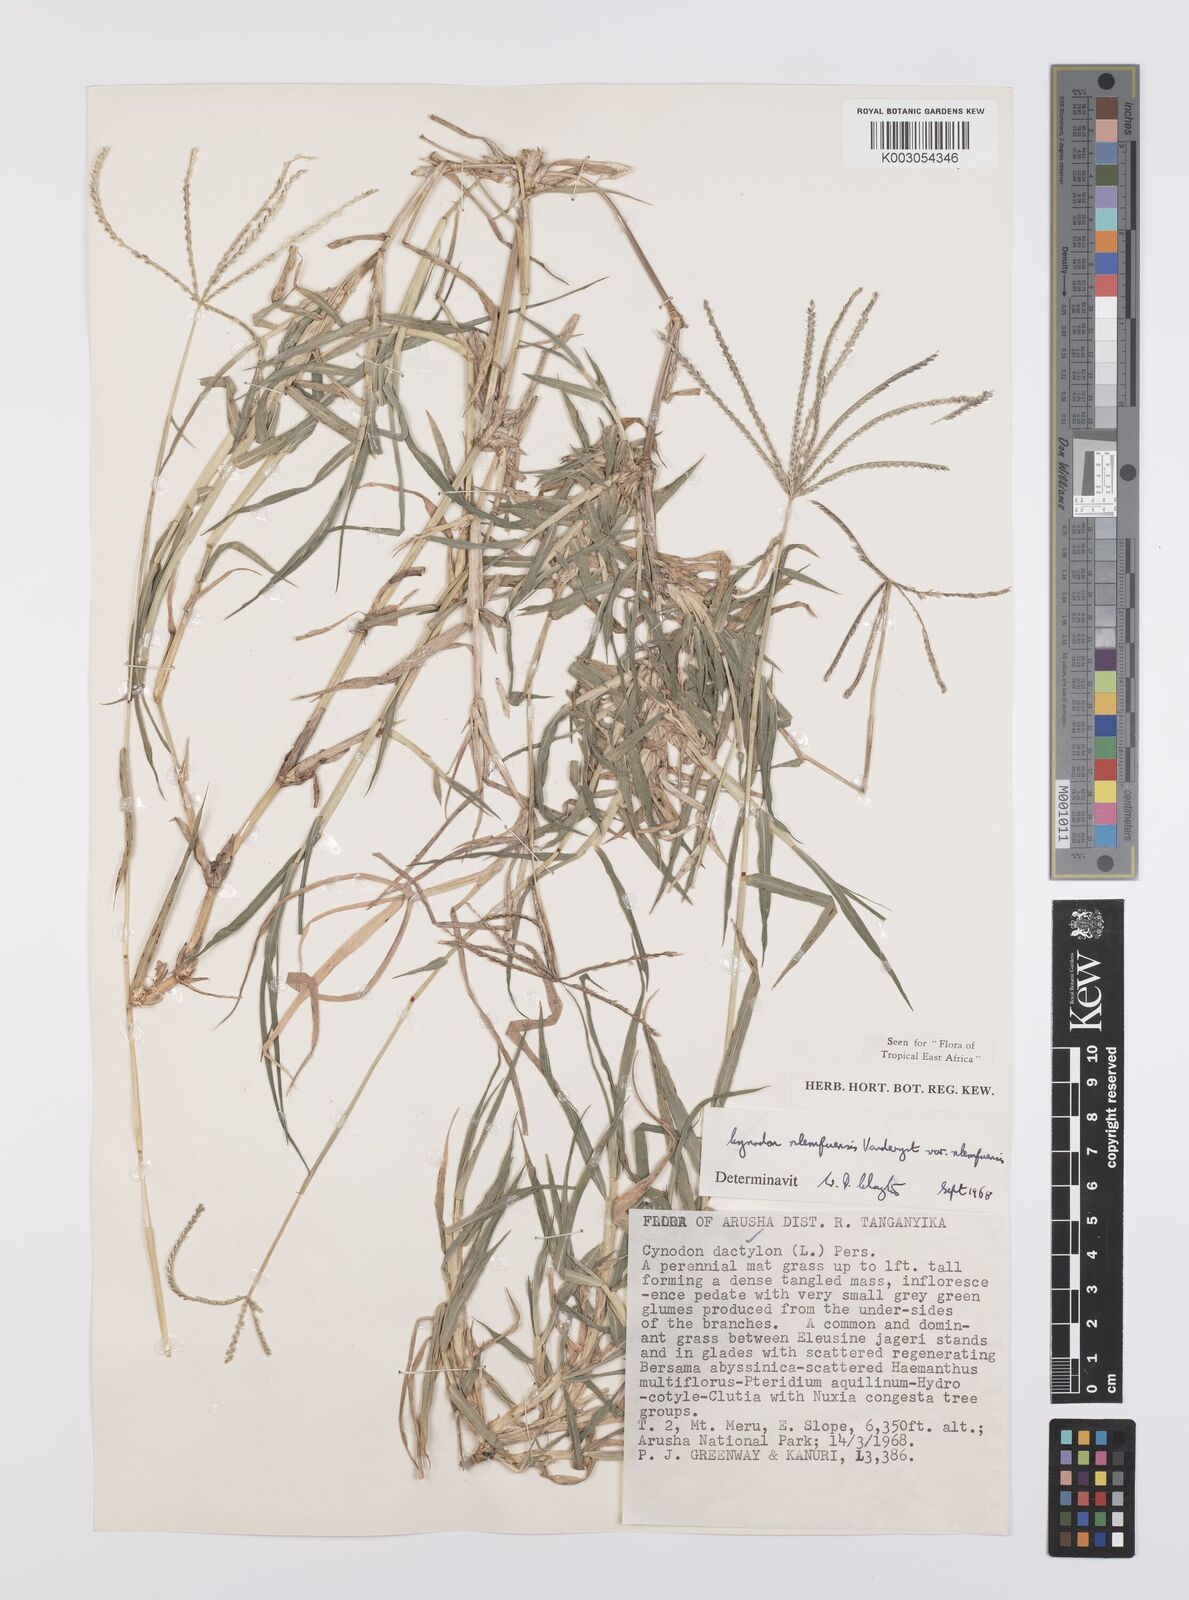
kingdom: Plantae
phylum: Tracheophyta
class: Liliopsida
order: Poales
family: Poaceae
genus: Cynodon
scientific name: Cynodon nlemfuensis
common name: African bermudagrass
